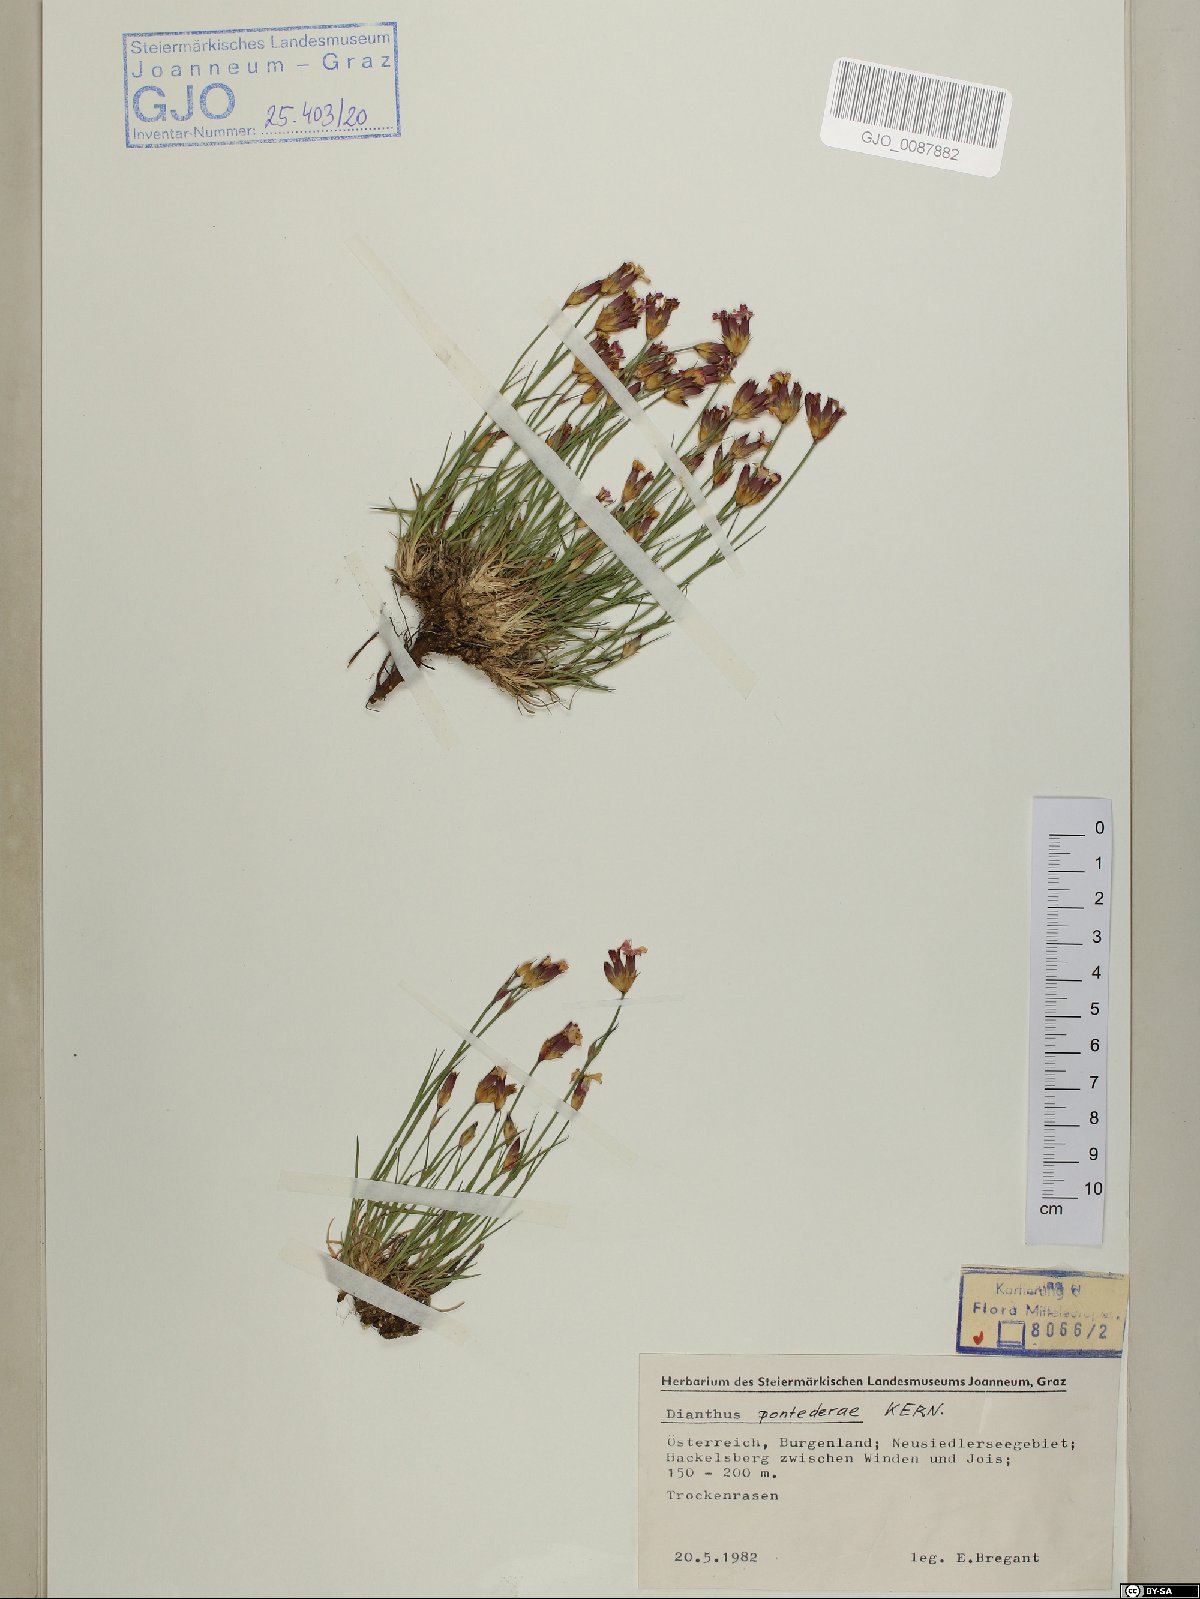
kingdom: Plantae
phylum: Tracheophyta
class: Magnoliopsida
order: Caryophyllales
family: Caryophyllaceae
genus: Dianthus
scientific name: Dianthus pontederae
